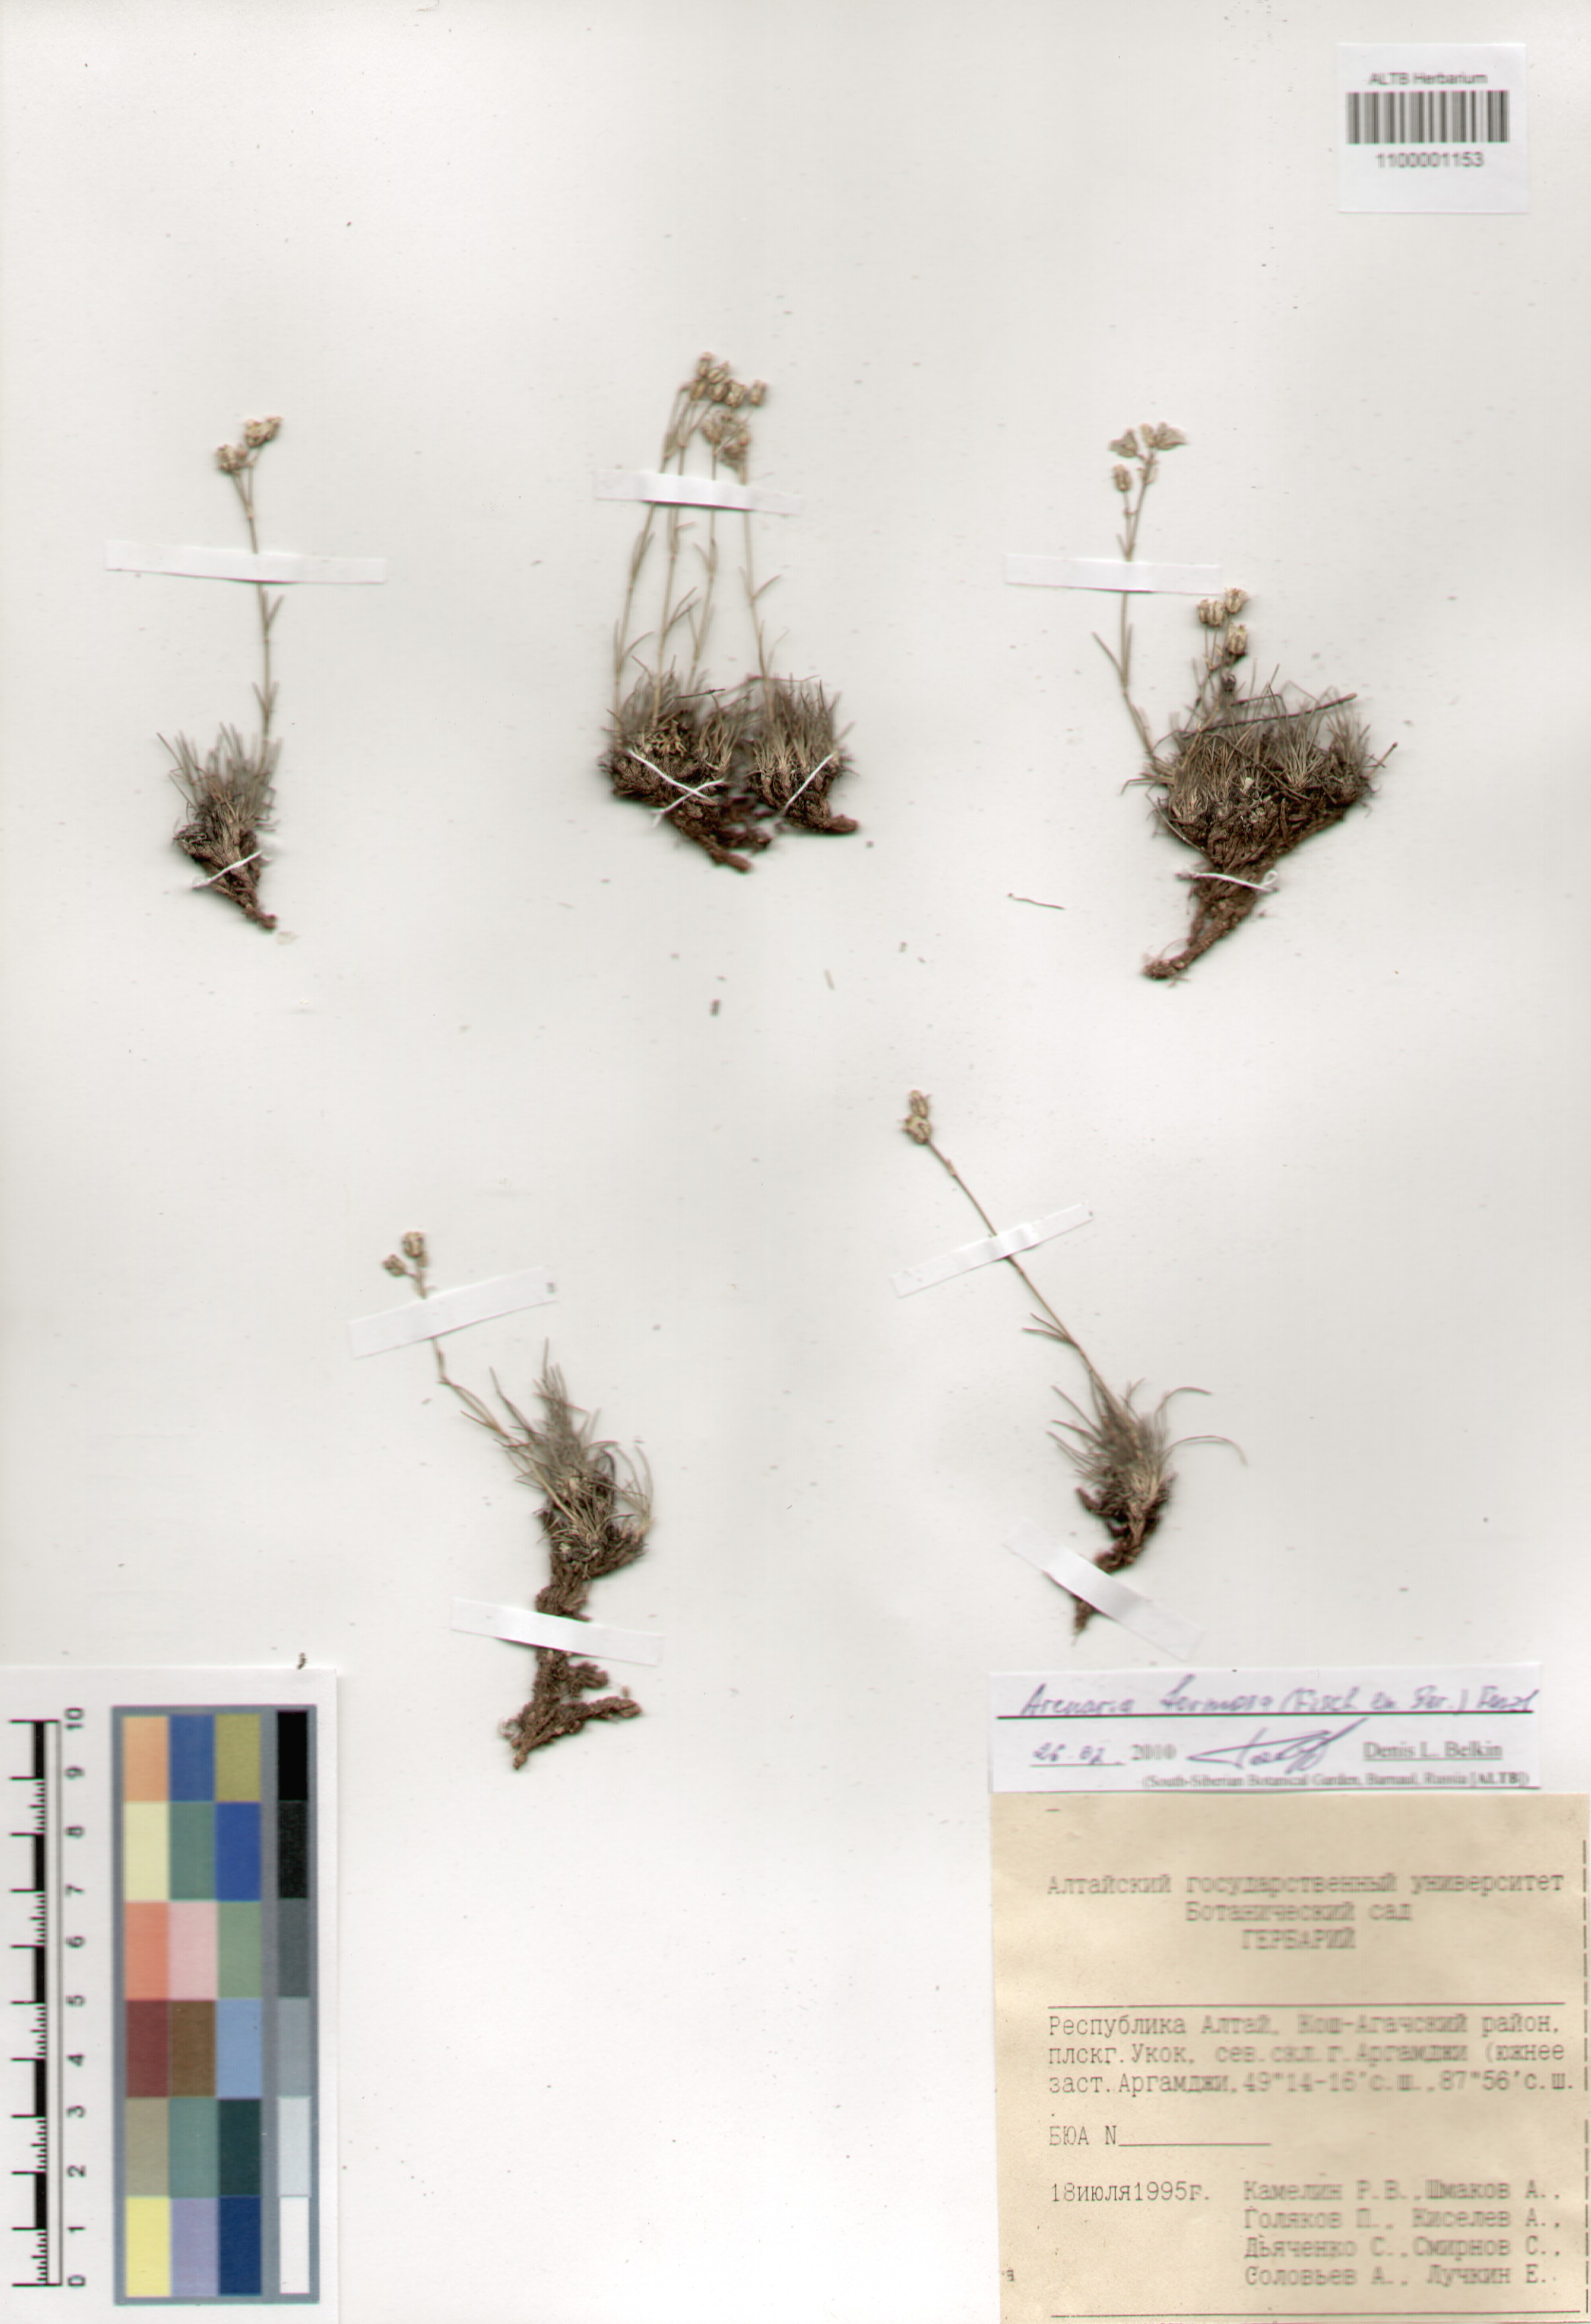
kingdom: Plantae
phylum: Tracheophyta
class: Magnoliopsida
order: Caryophyllales
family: Caryophyllaceae
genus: Eremogone
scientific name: Eremogone formosa
